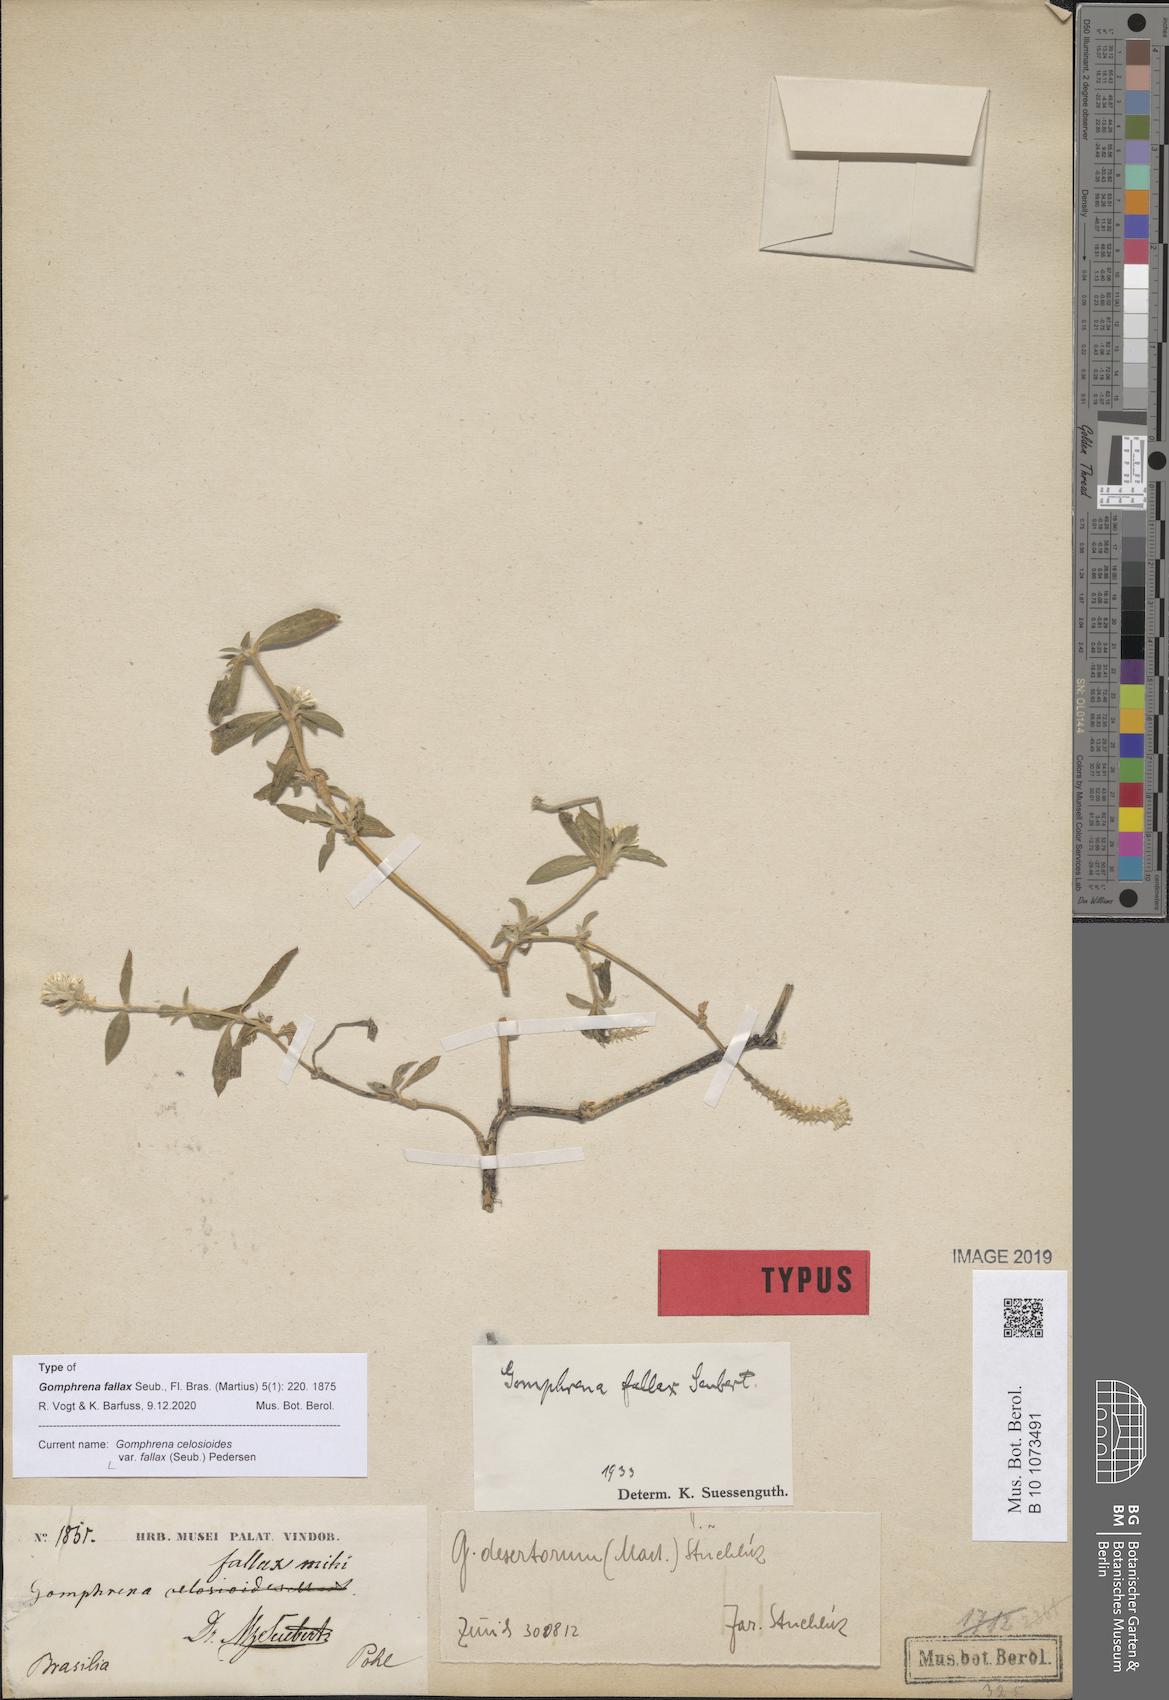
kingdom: Plantae
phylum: Tracheophyta
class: Magnoliopsida
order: Caryophyllales
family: Amaranthaceae
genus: Gomphrena
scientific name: Gomphrena celosioides
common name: Gomphrena-weed
